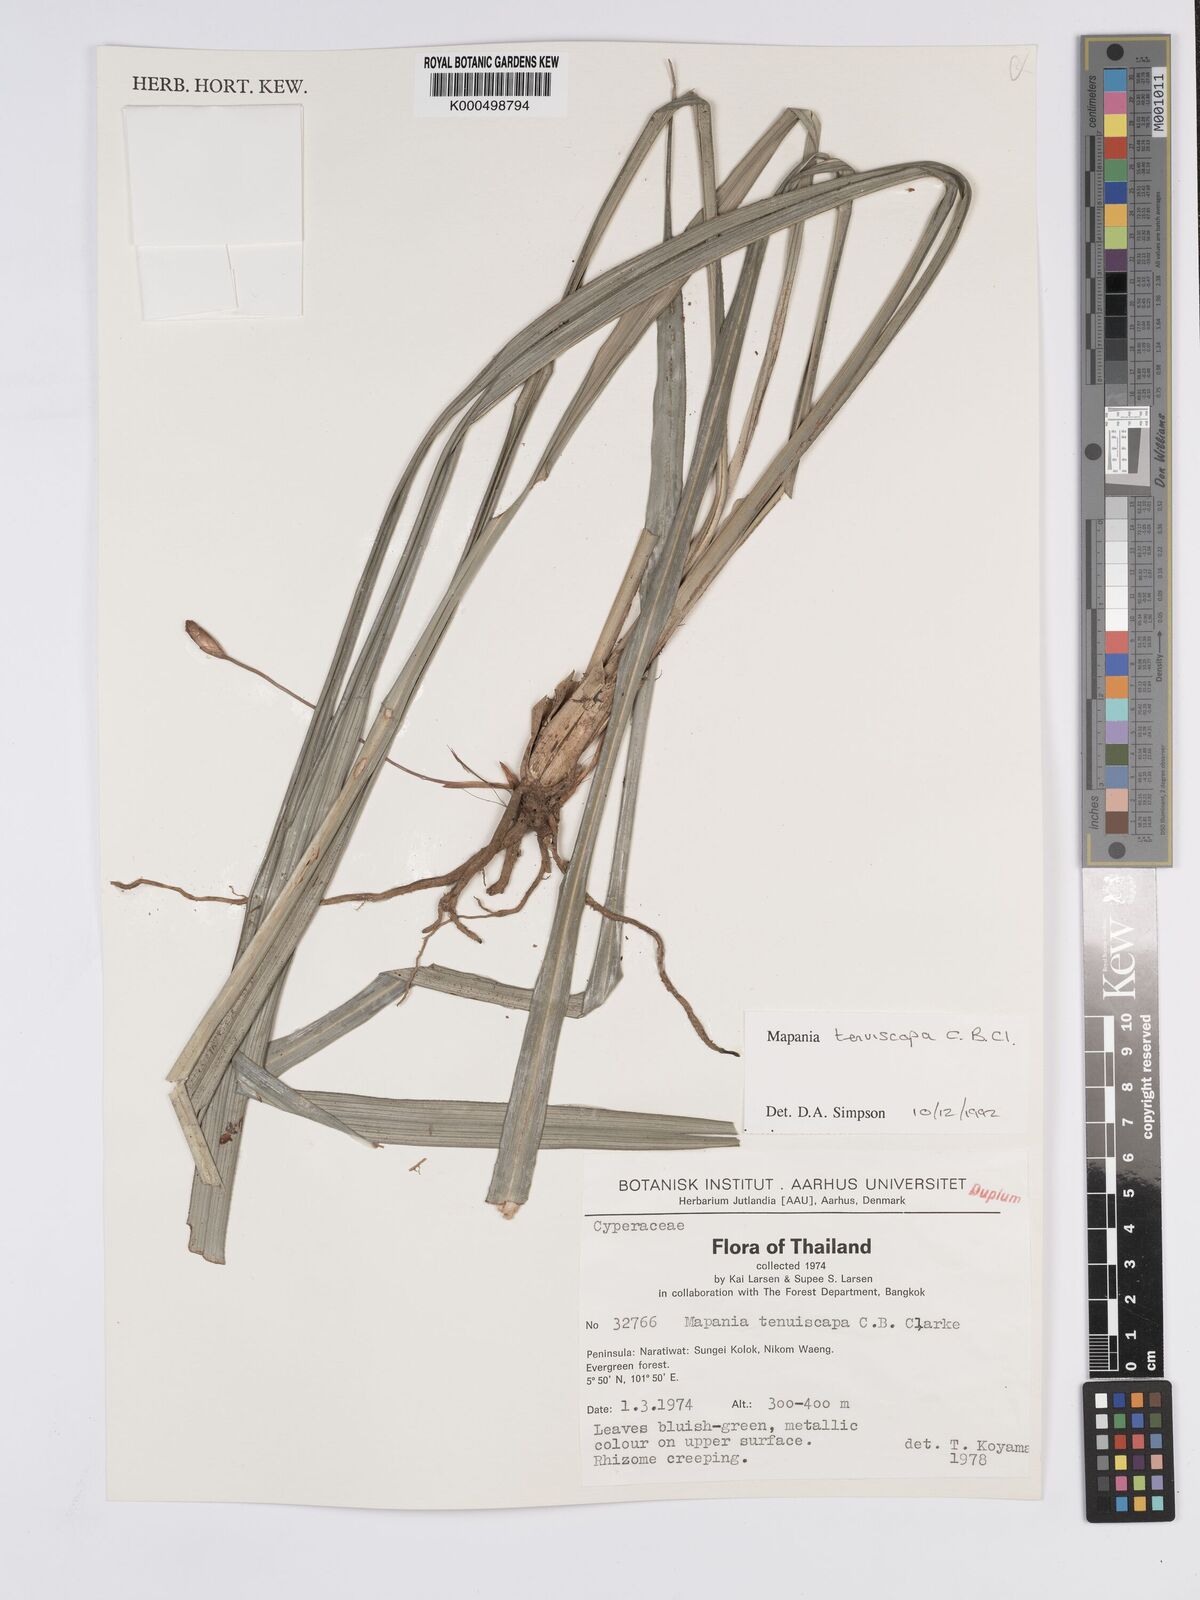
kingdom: Plantae
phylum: Tracheophyta
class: Liliopsida
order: Poales
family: Cyperaceae
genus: Mapania
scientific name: Mapania tenuiscapa
